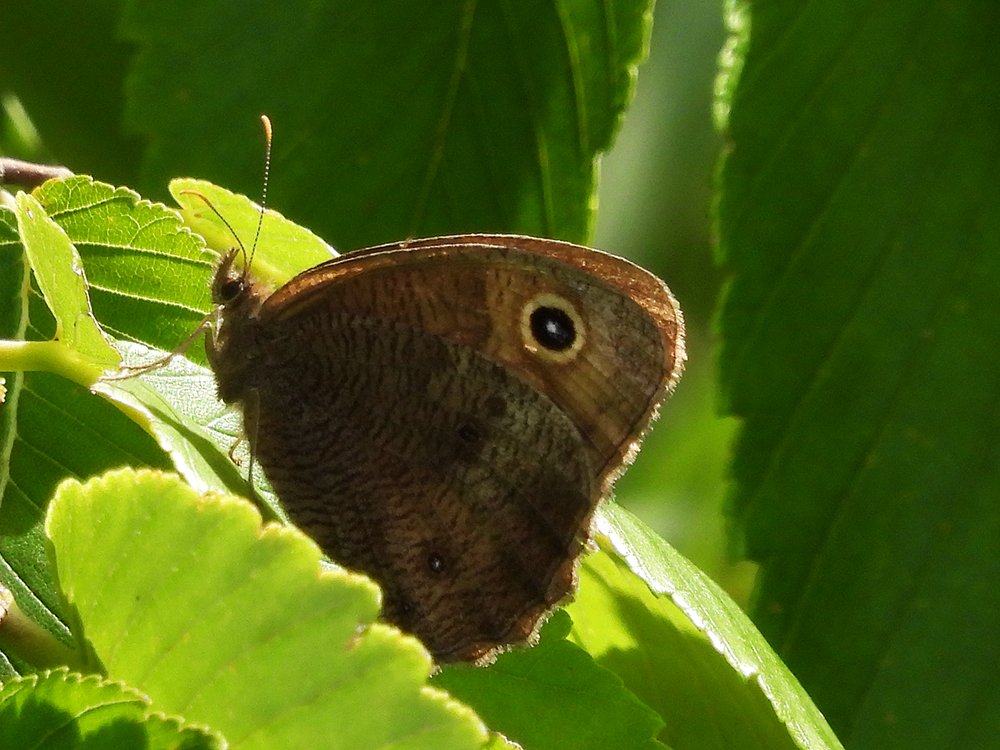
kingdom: Animalia
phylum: Arthropoda
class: Insecta
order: Lepidoptera
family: Nymphalidae
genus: Cercyonis
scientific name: Cercyonis pegala
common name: Common Wood-Nymph
